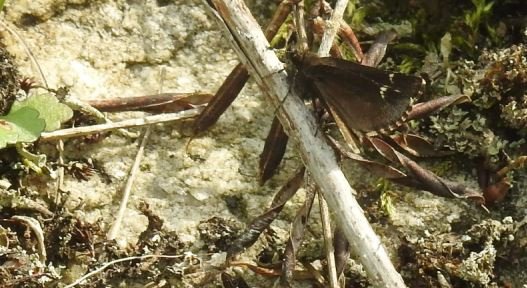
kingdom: Animalia
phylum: Arthropoda
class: Insecta
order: Lepidoptera
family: Hesperiidae
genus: Mastor
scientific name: Mastor vialis
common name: Common Roadside-Skipper
